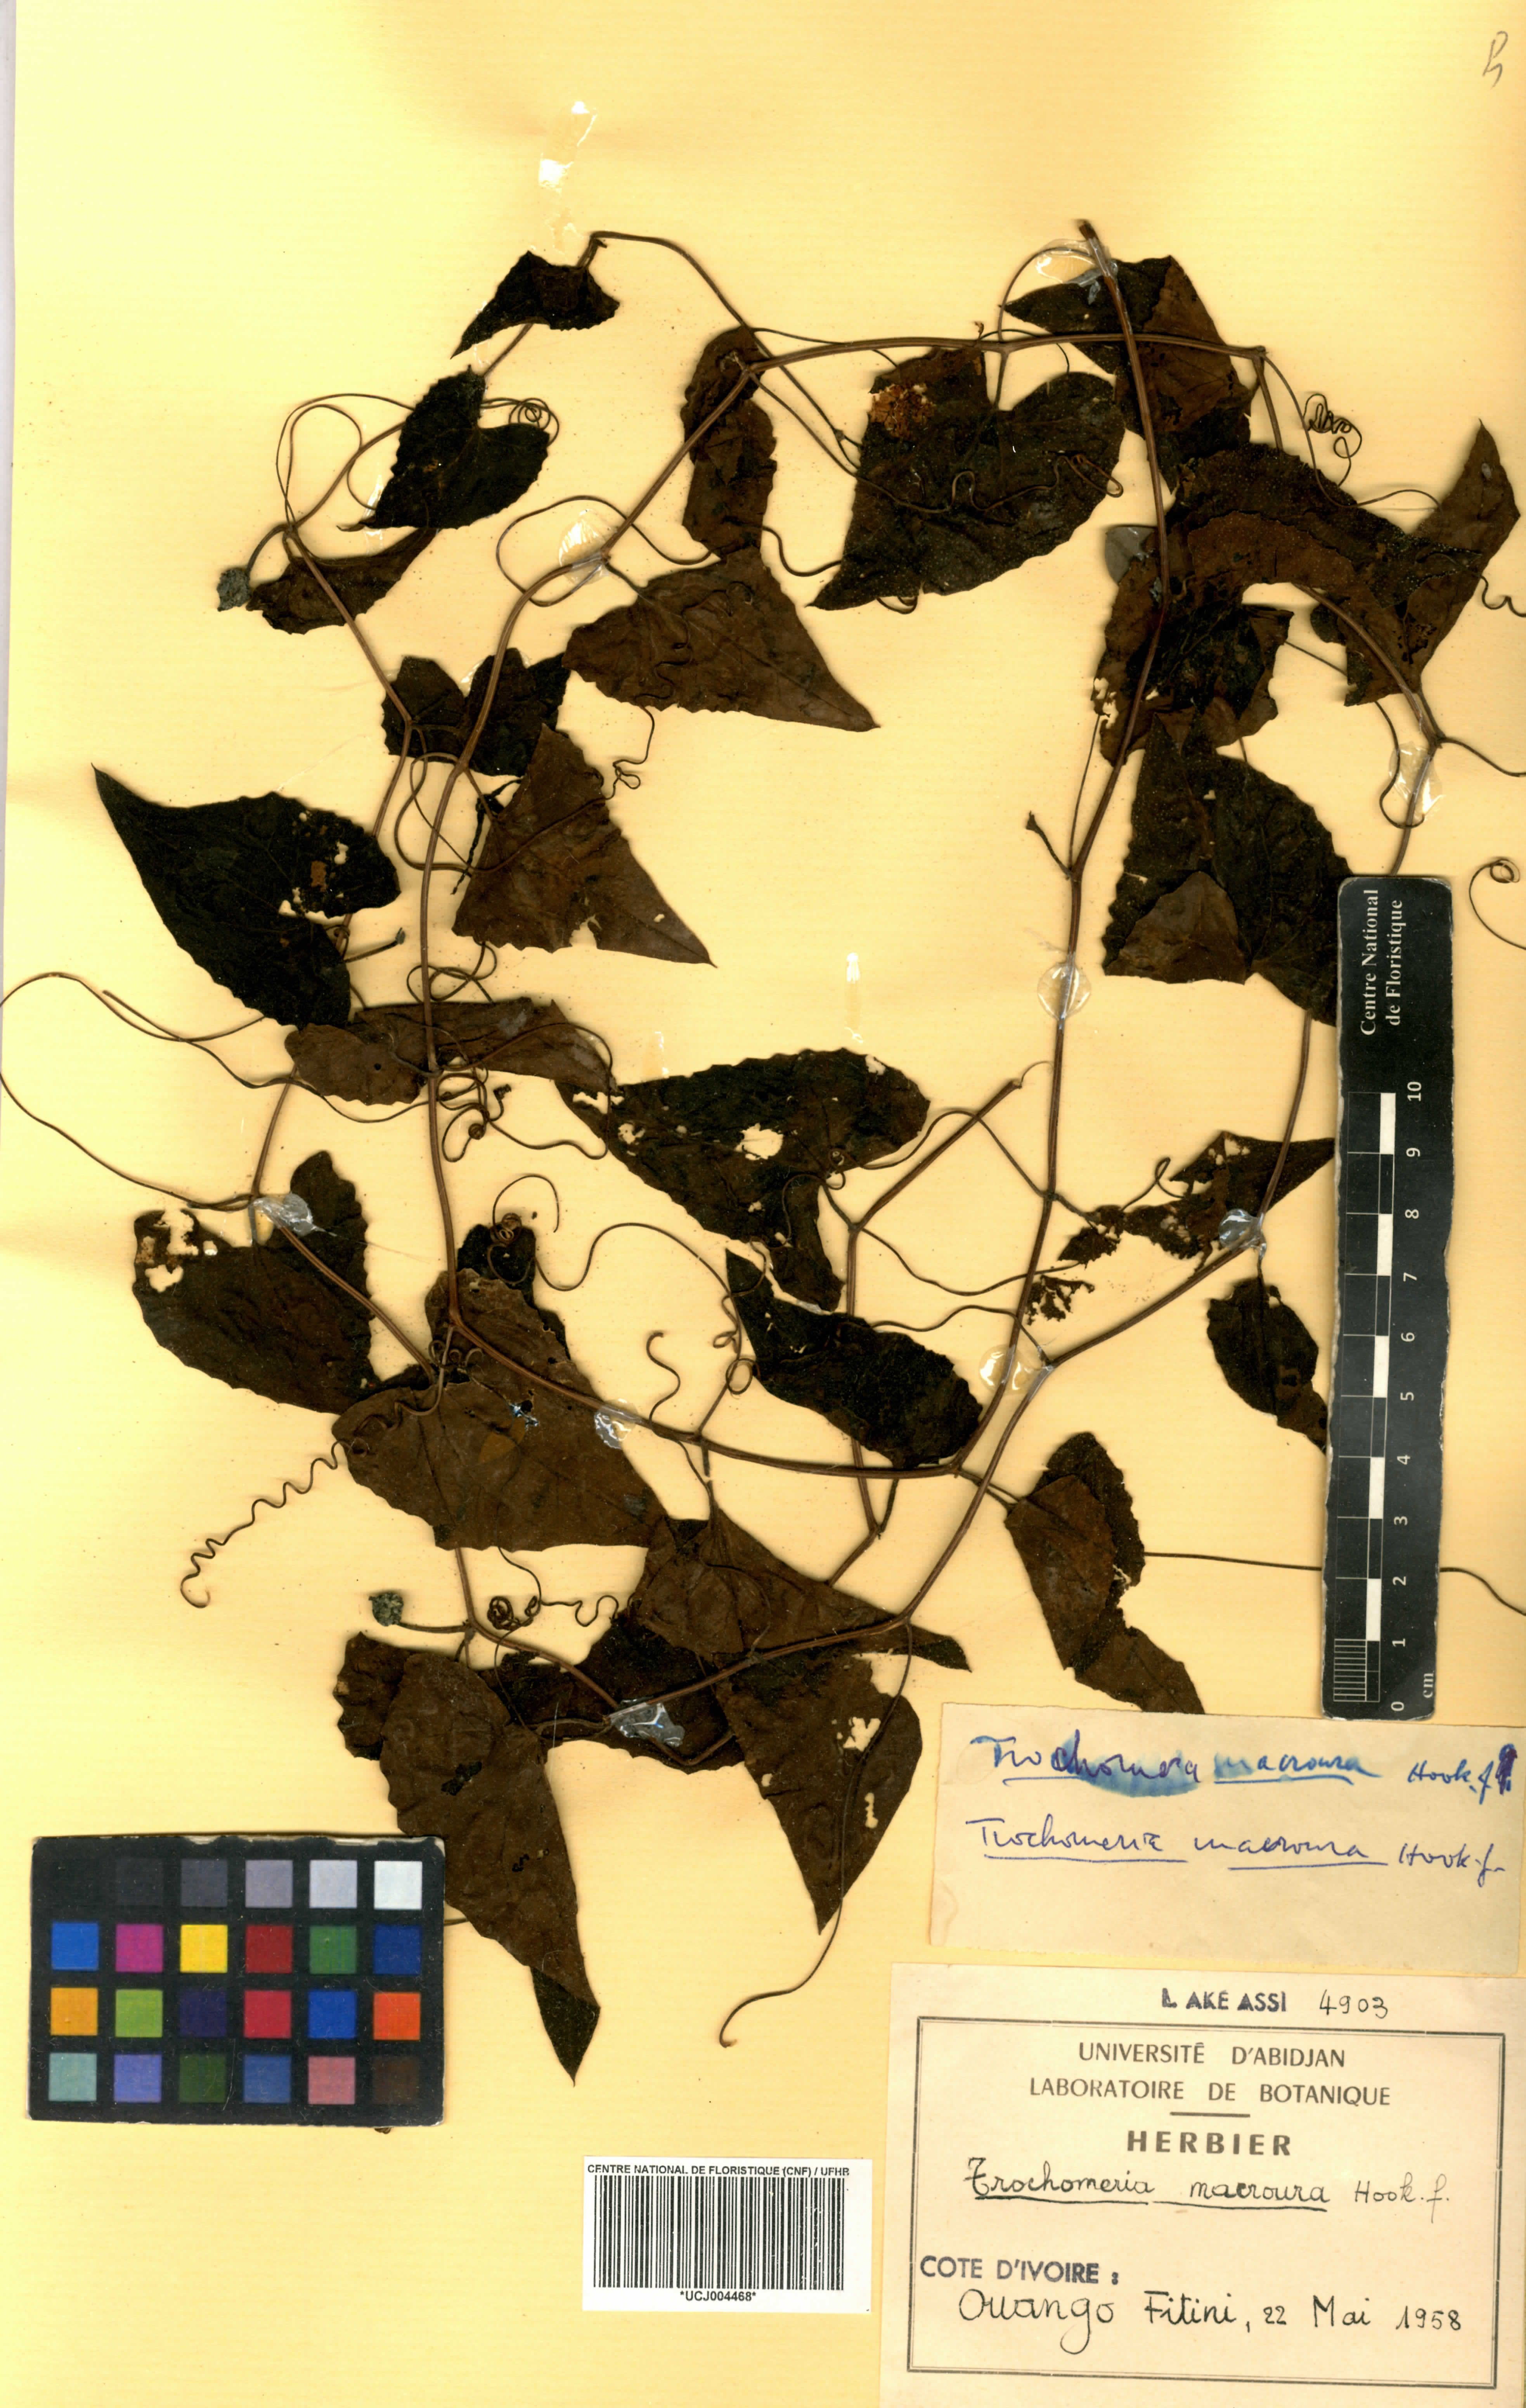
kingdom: Plantae
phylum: Tracheophyta
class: Magnoliopsida
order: Cucurbitales
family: Cucurbitaceae
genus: Trochomeria
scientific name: Trochomeria macrocarpa
